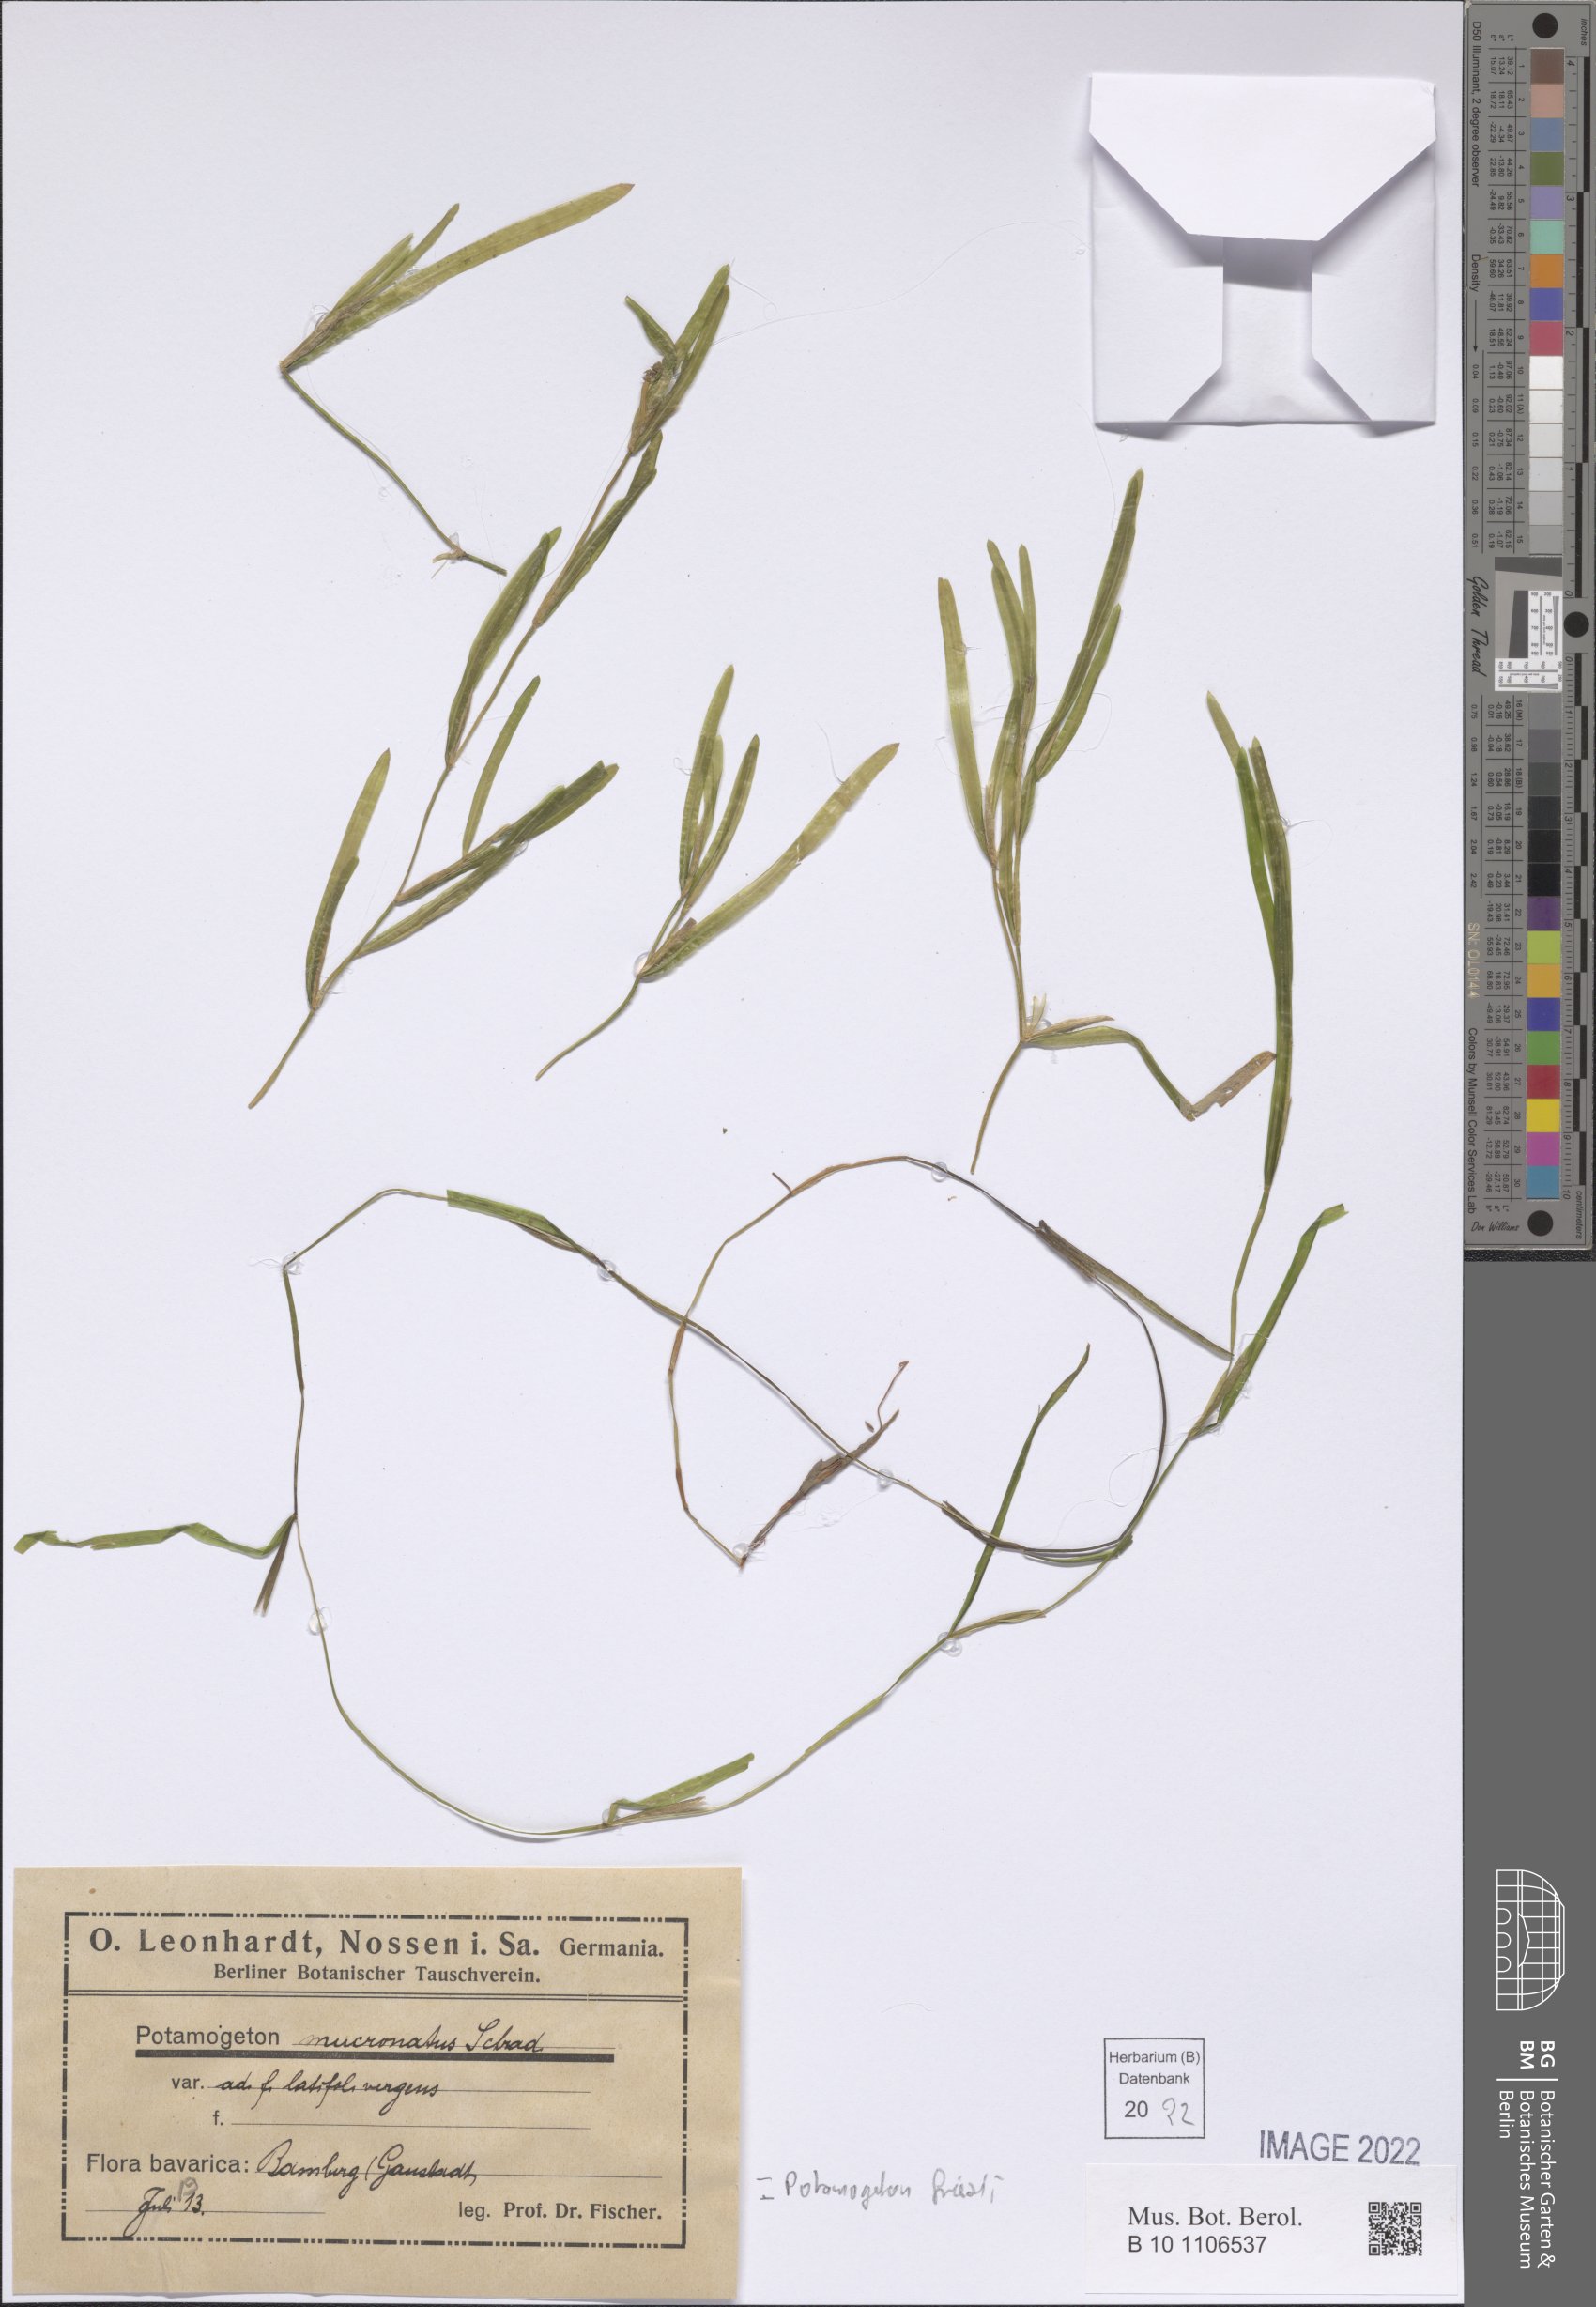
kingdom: Plantae
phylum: Tracheophyta
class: Liliopsida
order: Alismatales
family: Potamogetonaceae
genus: Potamogeton
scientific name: Potamogeton friesii
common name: Flat-stalked pondweed
